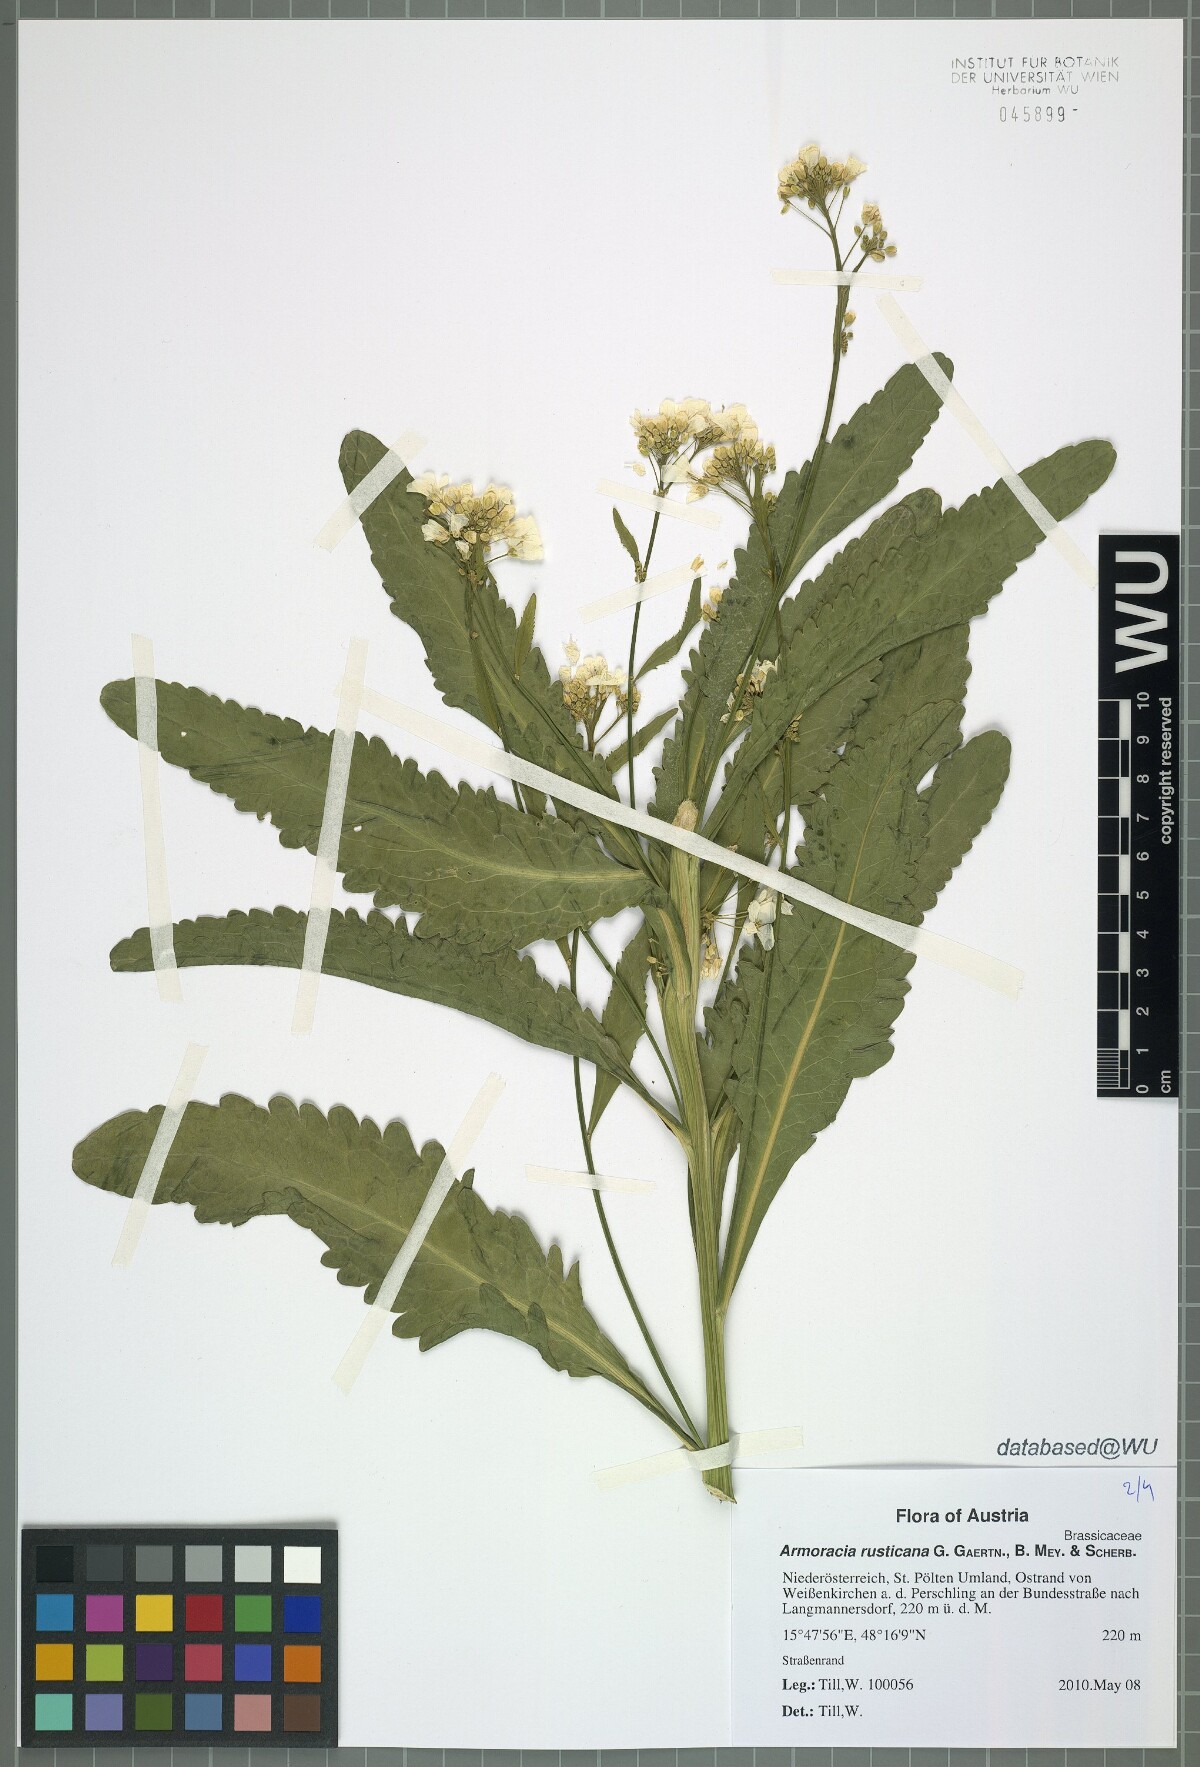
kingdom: Plantae
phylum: Tracheophyta
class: Magnoliopsida
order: Brassicales
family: Brassicaceae
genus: Armoracia
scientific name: Armoracia rusticana
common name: Horseradish
